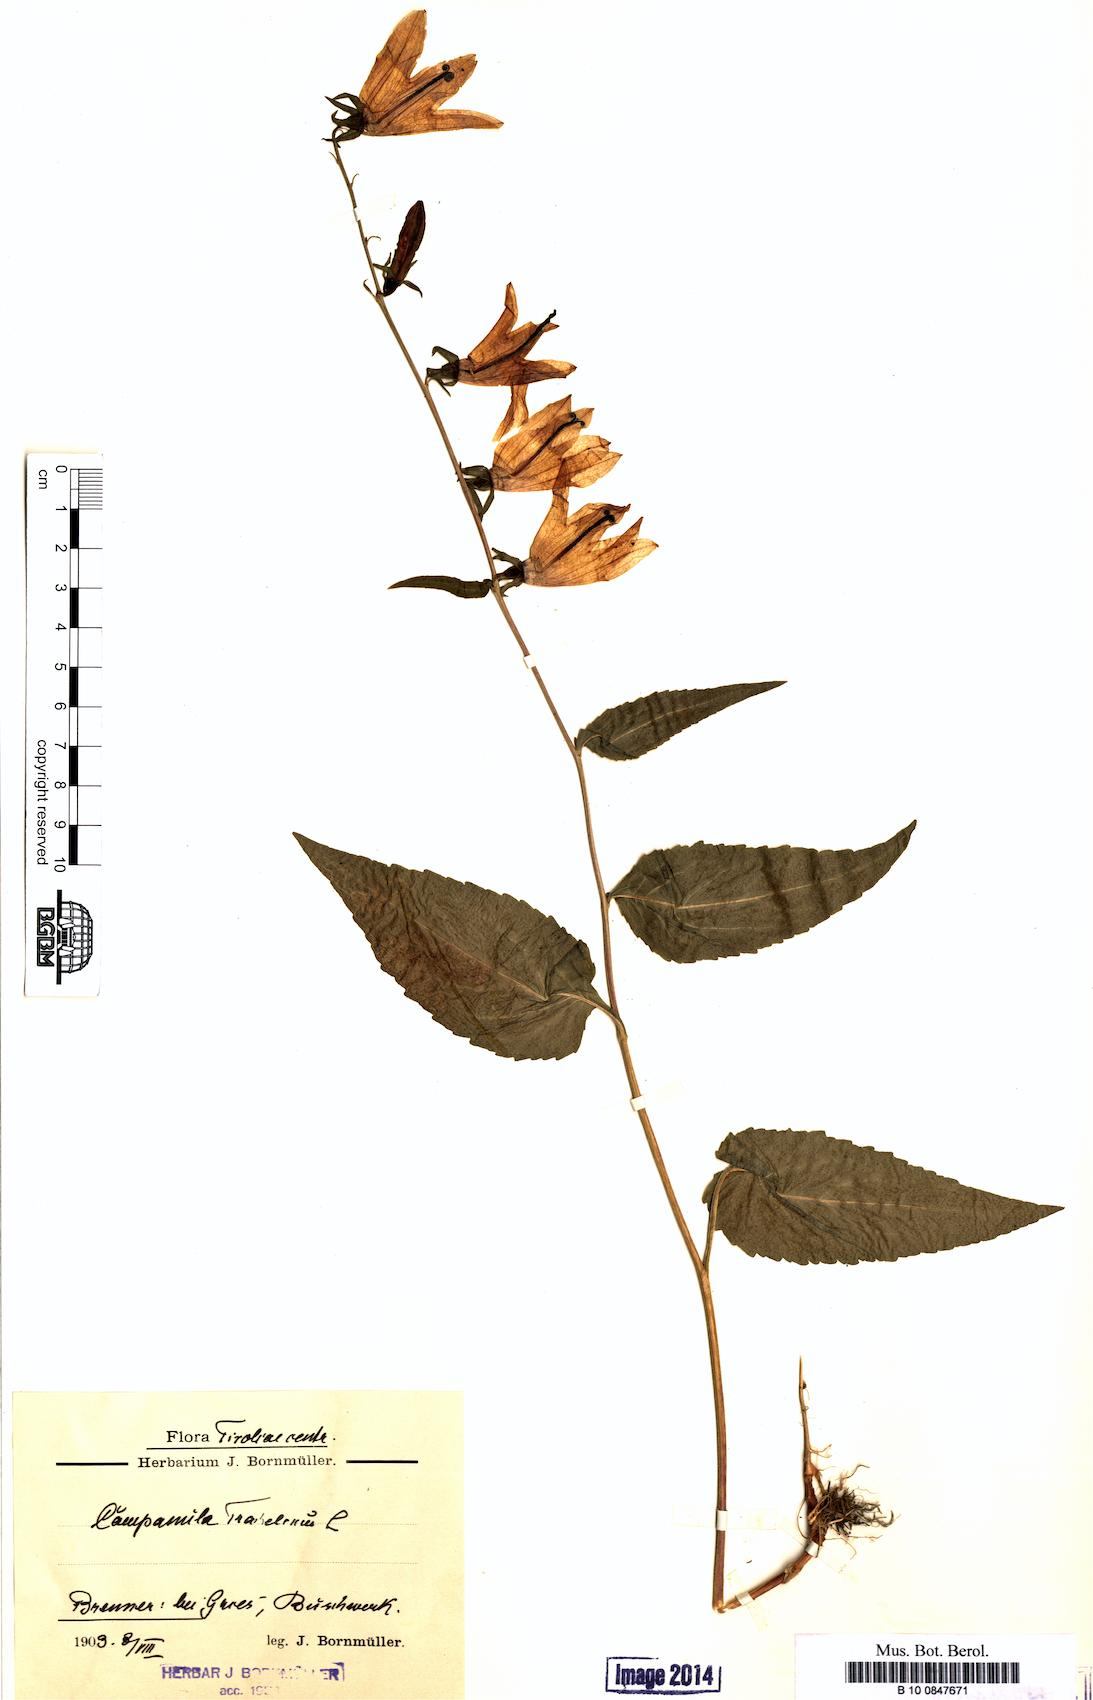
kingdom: Plantae
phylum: Tracheophyta
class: Magnoliopsida
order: Asterales
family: Campanulaceae
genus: Campanula
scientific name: Campanula trachelium
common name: Nettle-leaved bellflower
